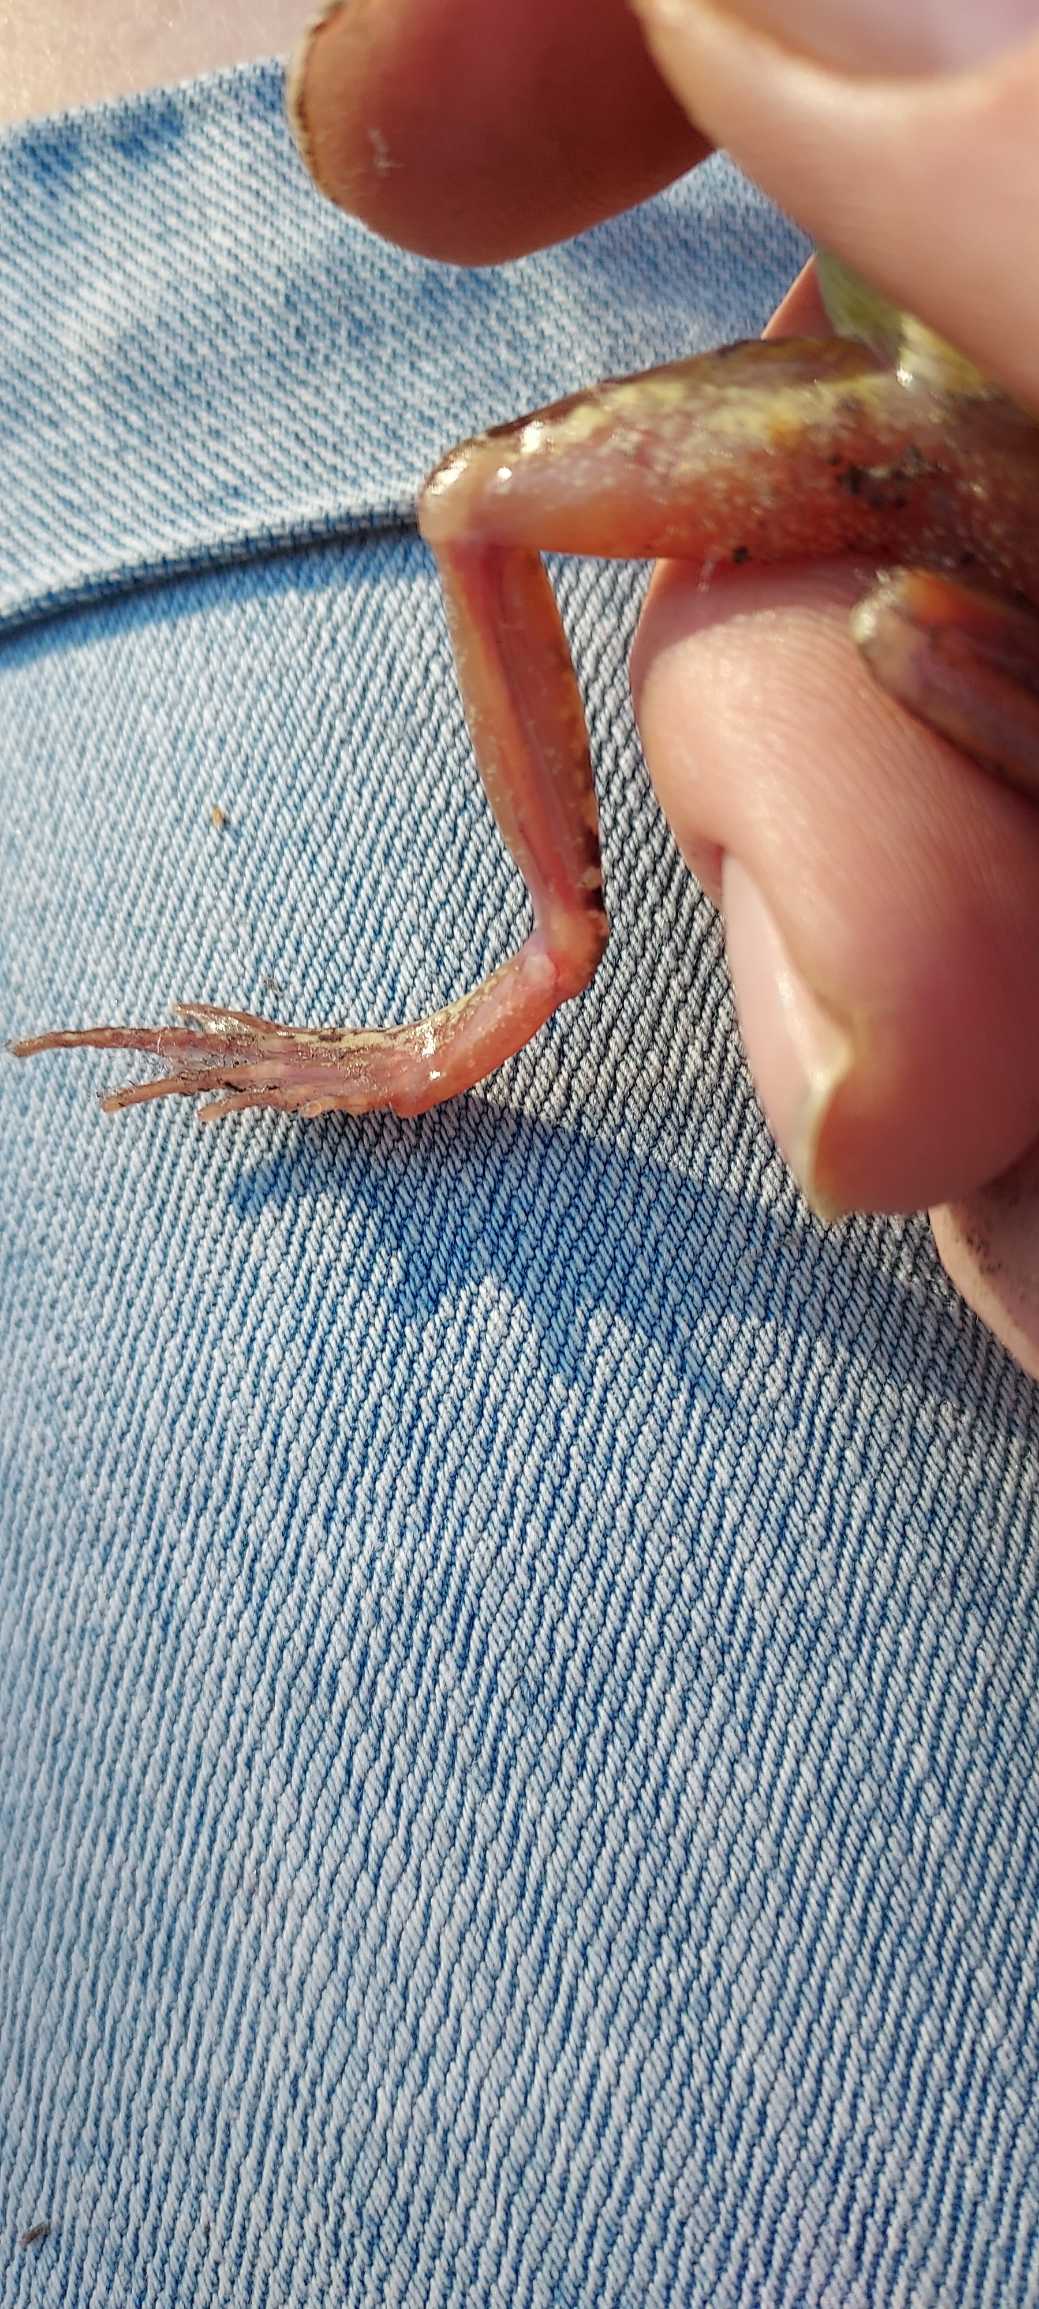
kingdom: Animalia
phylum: Chordata
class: Amphibia
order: Anura
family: Ranidae
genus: Rana
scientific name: Rana temporaria
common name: Butsnudet frø
